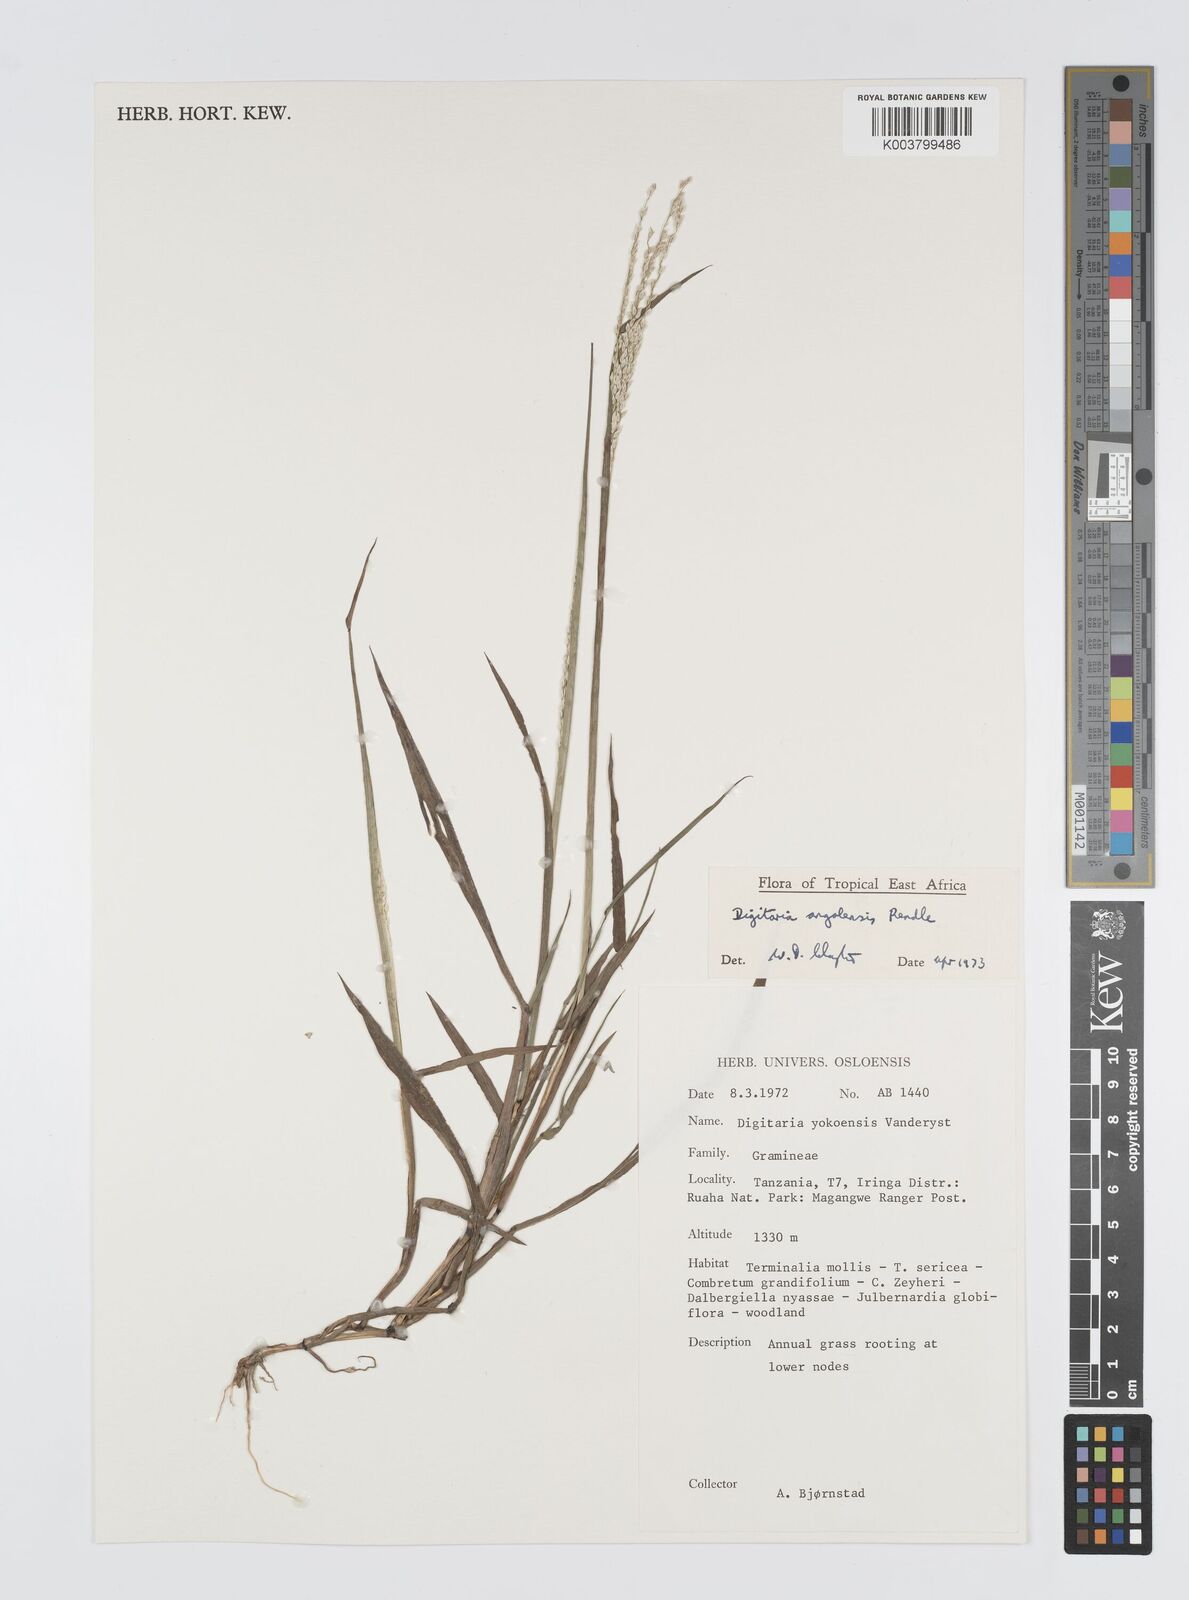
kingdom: Plantae
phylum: Tracheophyta
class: Liliopsida
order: Poales
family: Poaceae
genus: Digitaria
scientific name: Digitaria angolensis
